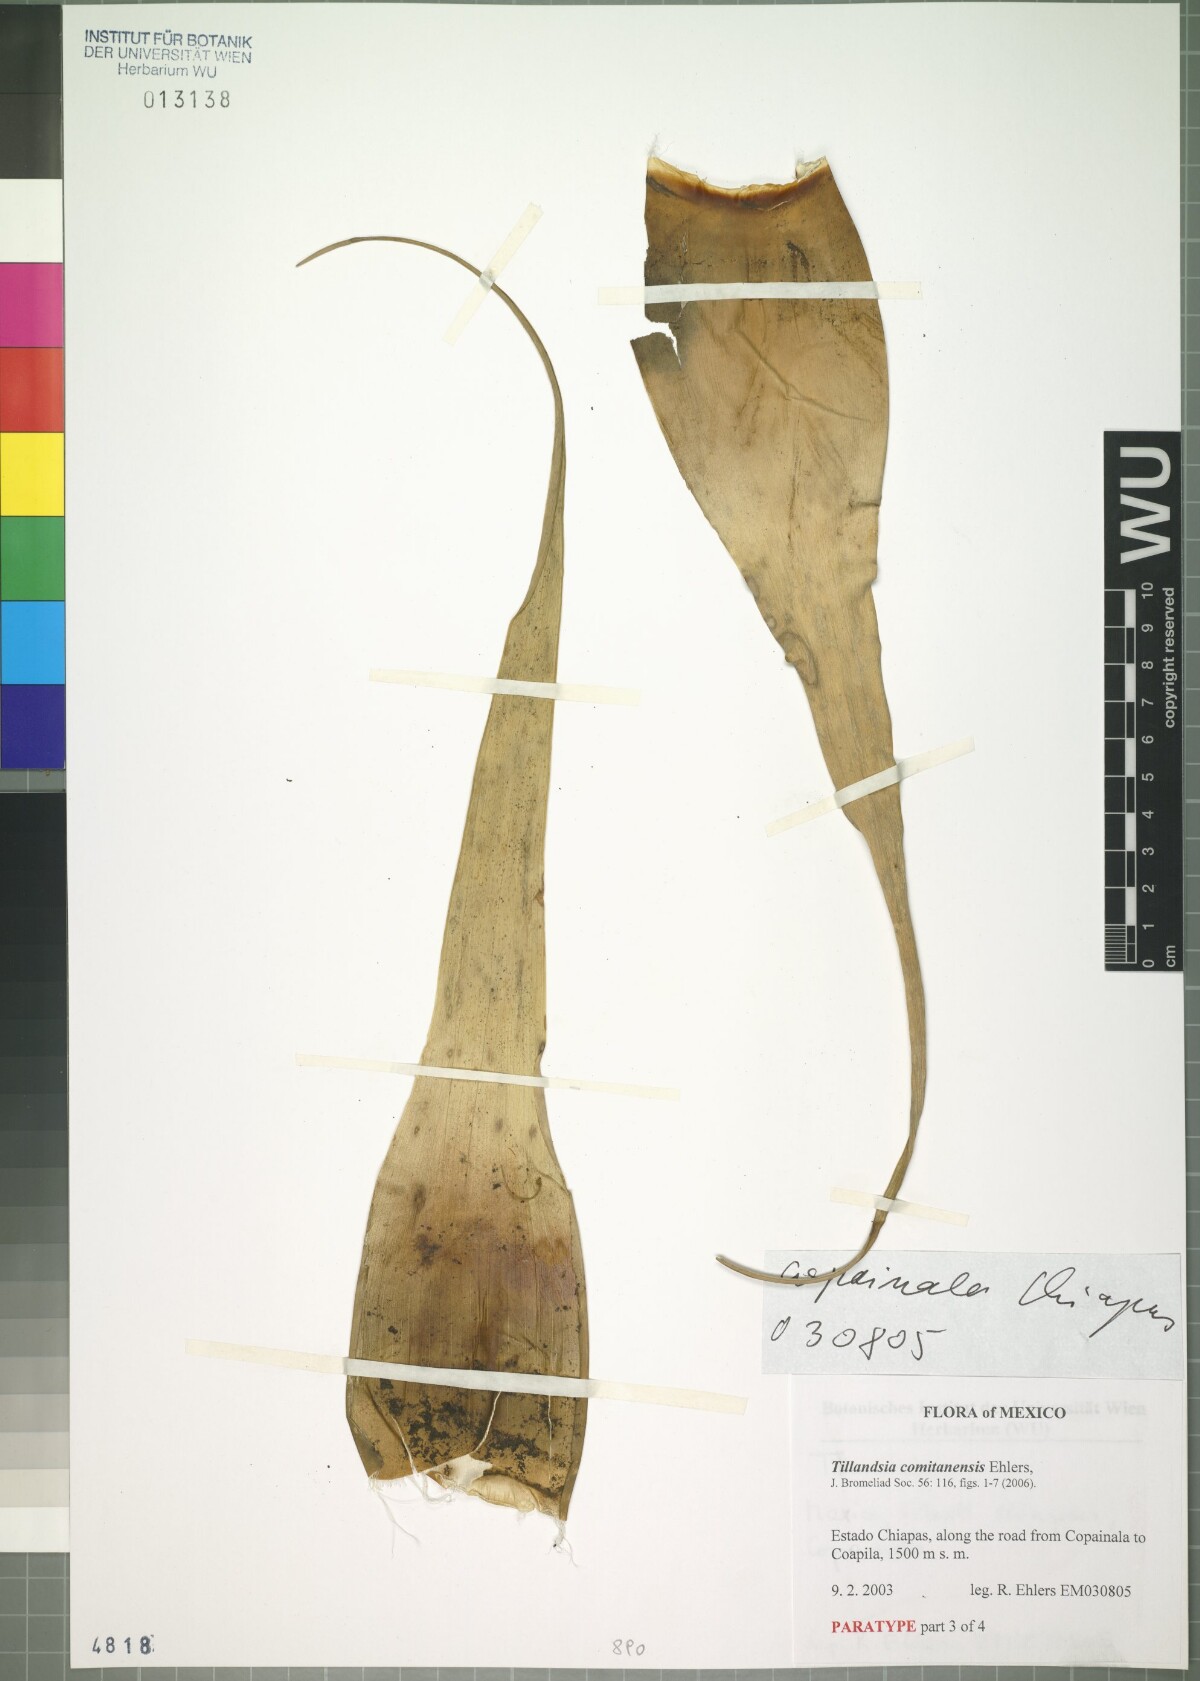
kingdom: Plantae
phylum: Tracheophyta
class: Liliopsida
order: Poales
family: Bromeliaceae
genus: Tillandsia
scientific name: Tillandsia comitanensis
